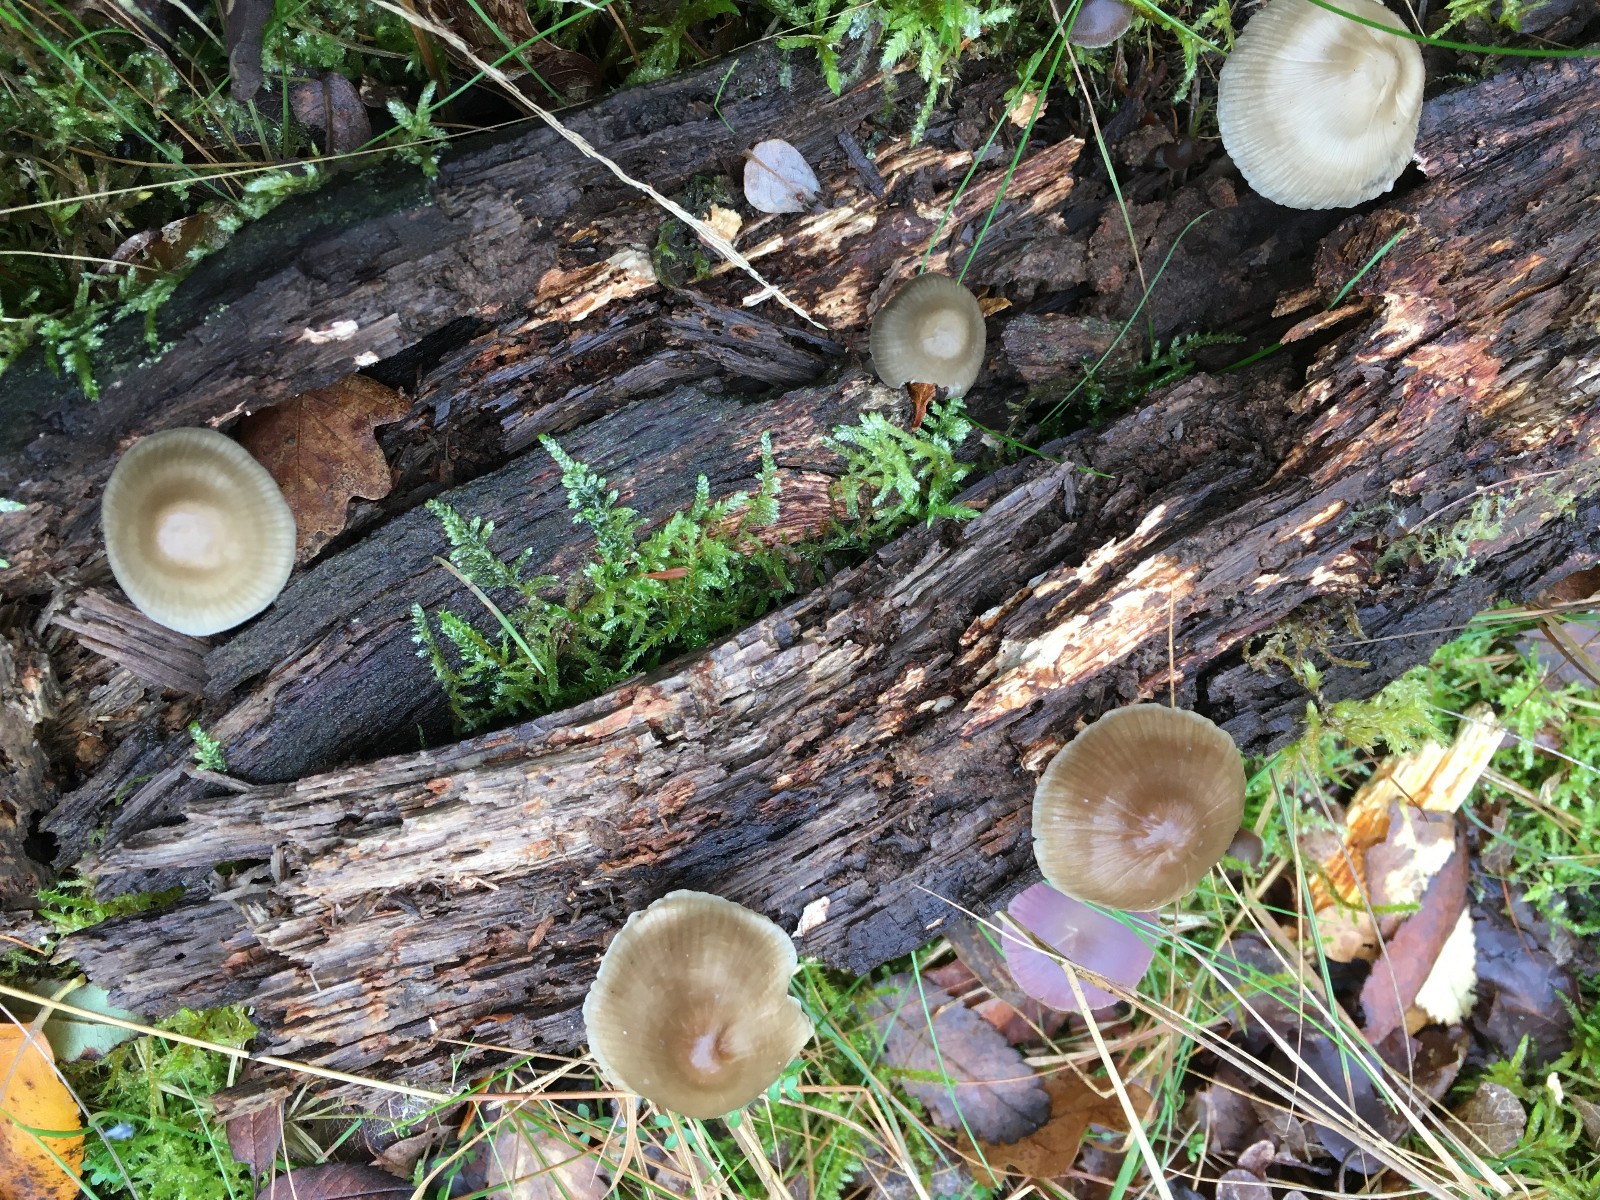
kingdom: Fungi
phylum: Basidiomycota
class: Agaricomycetes
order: Agaricales
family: Mycenaceae
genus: Mycena
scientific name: Mycena galericulata
